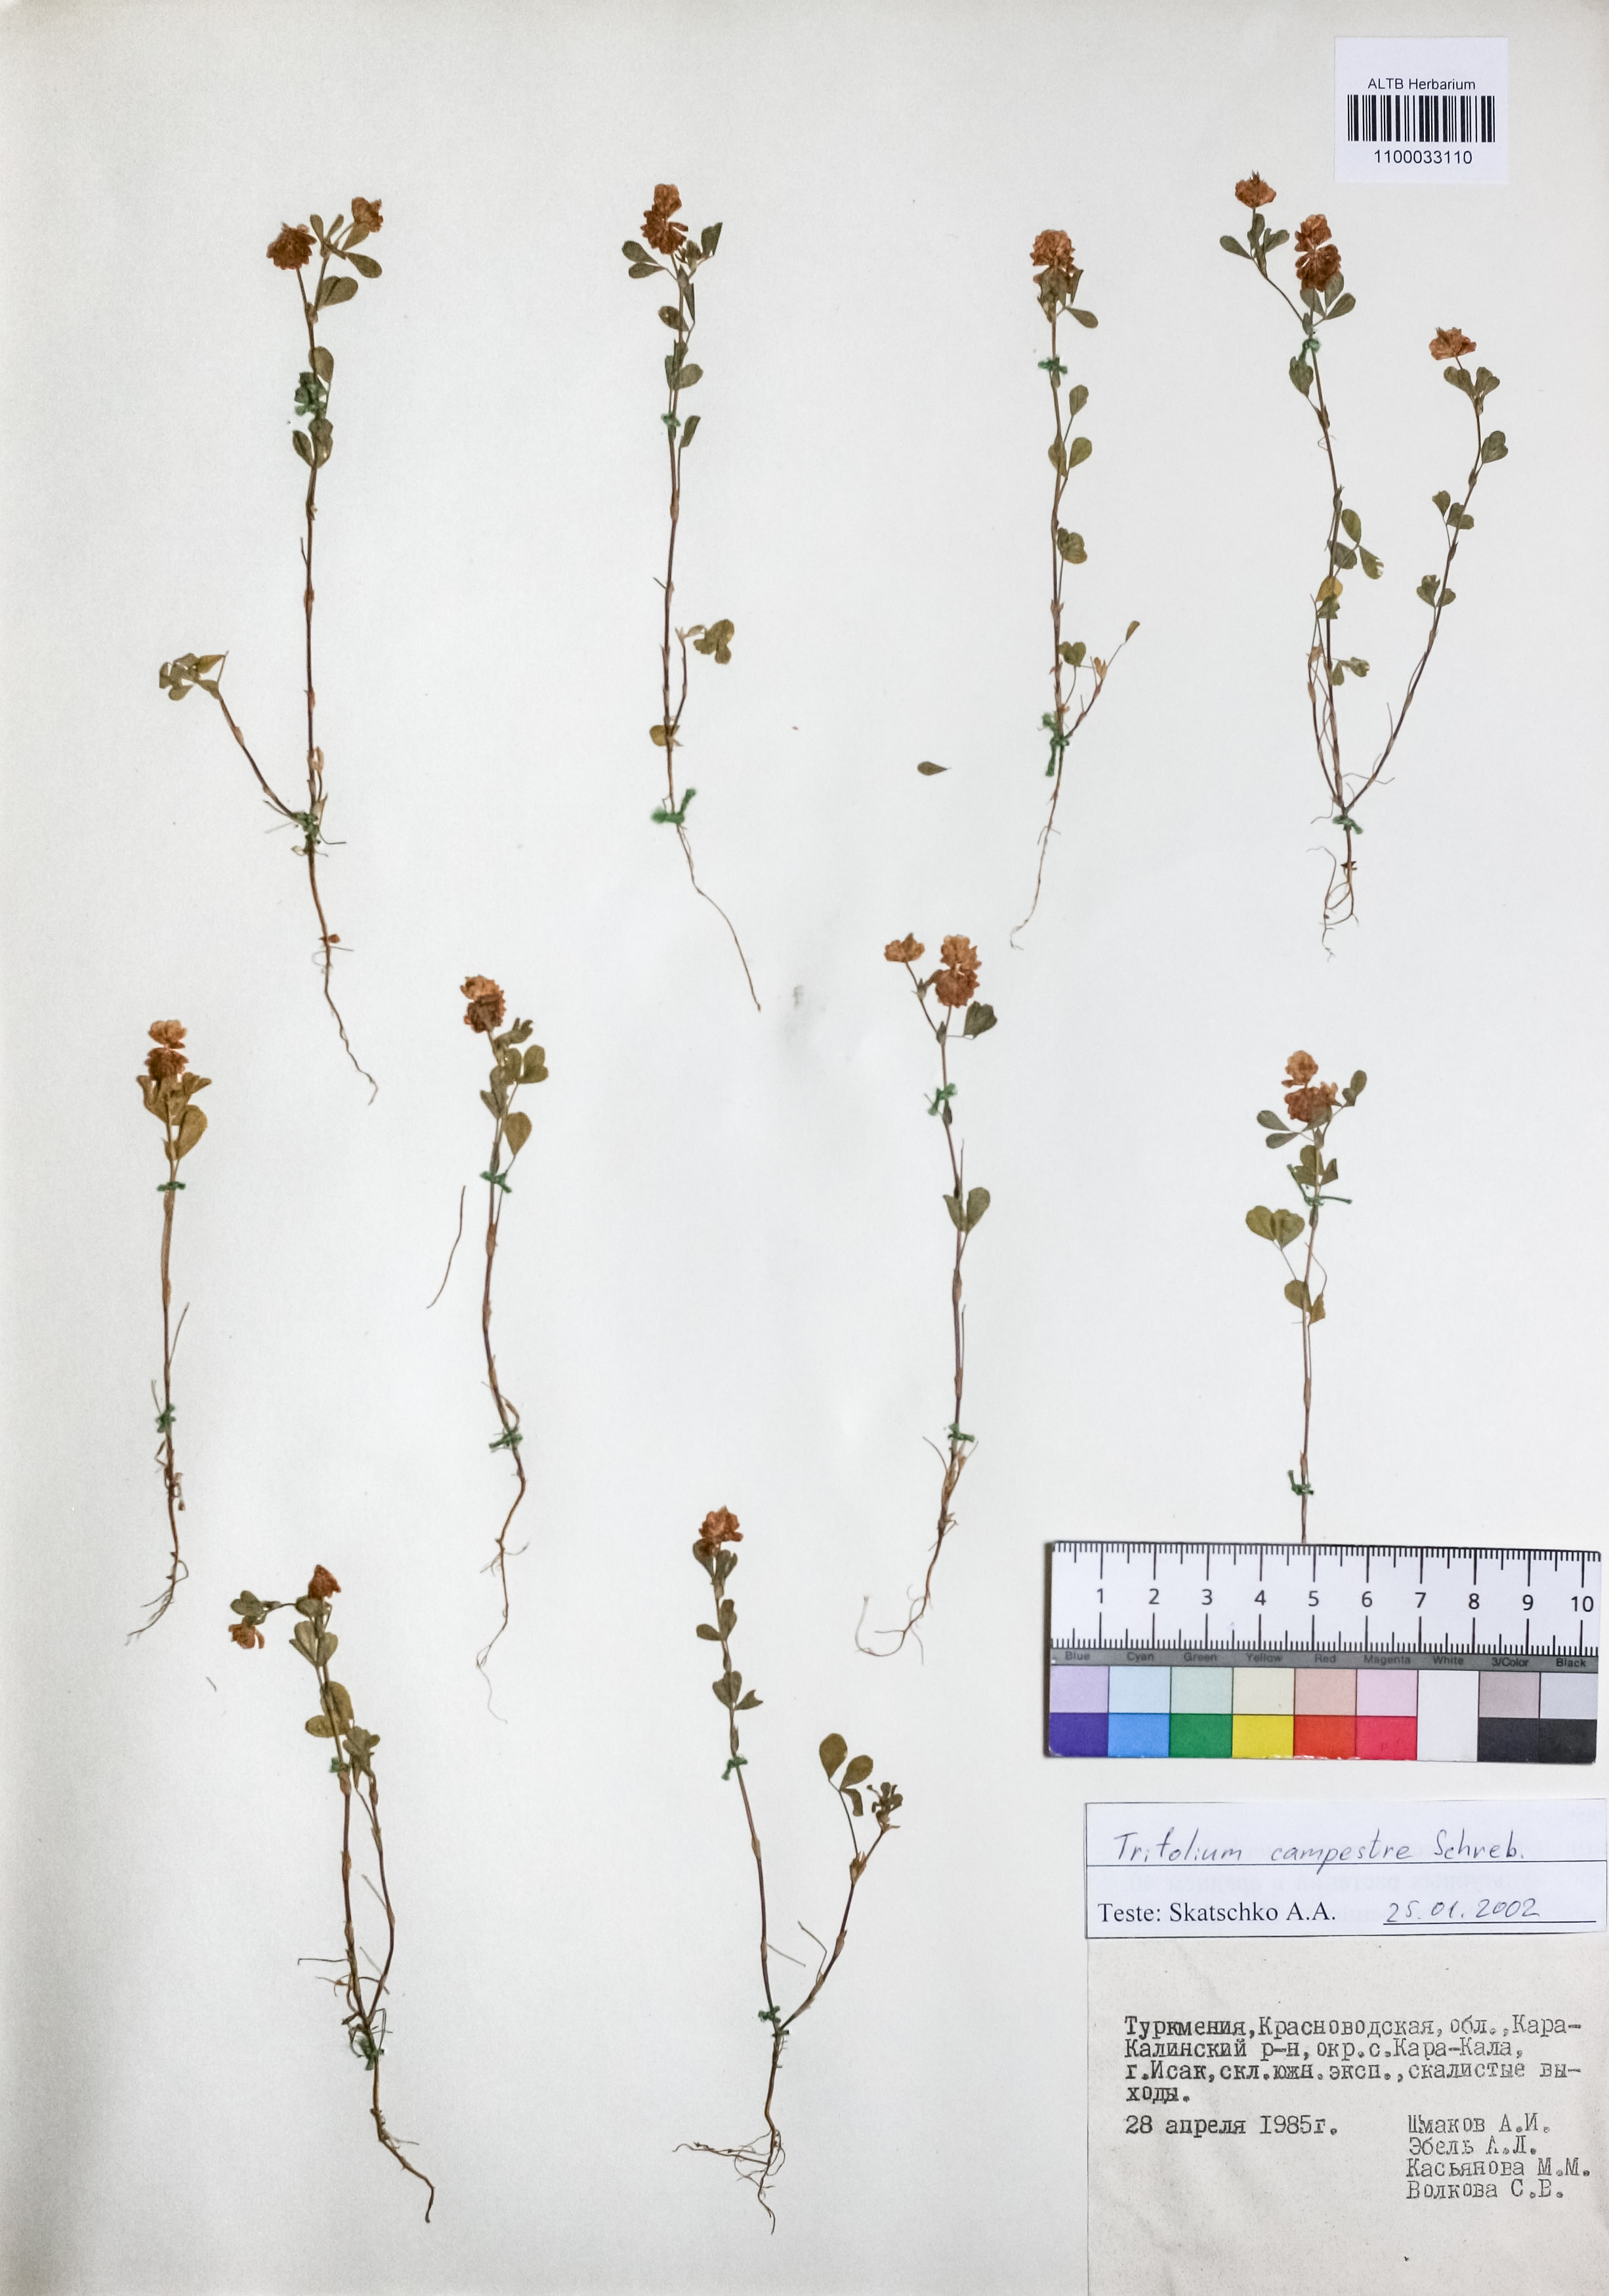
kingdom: Plantae
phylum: Tracheophyta
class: Magnoliopsida
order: Fabales
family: Fabaceae
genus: Trifolium
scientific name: Trifolium campestre
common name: Field clover
